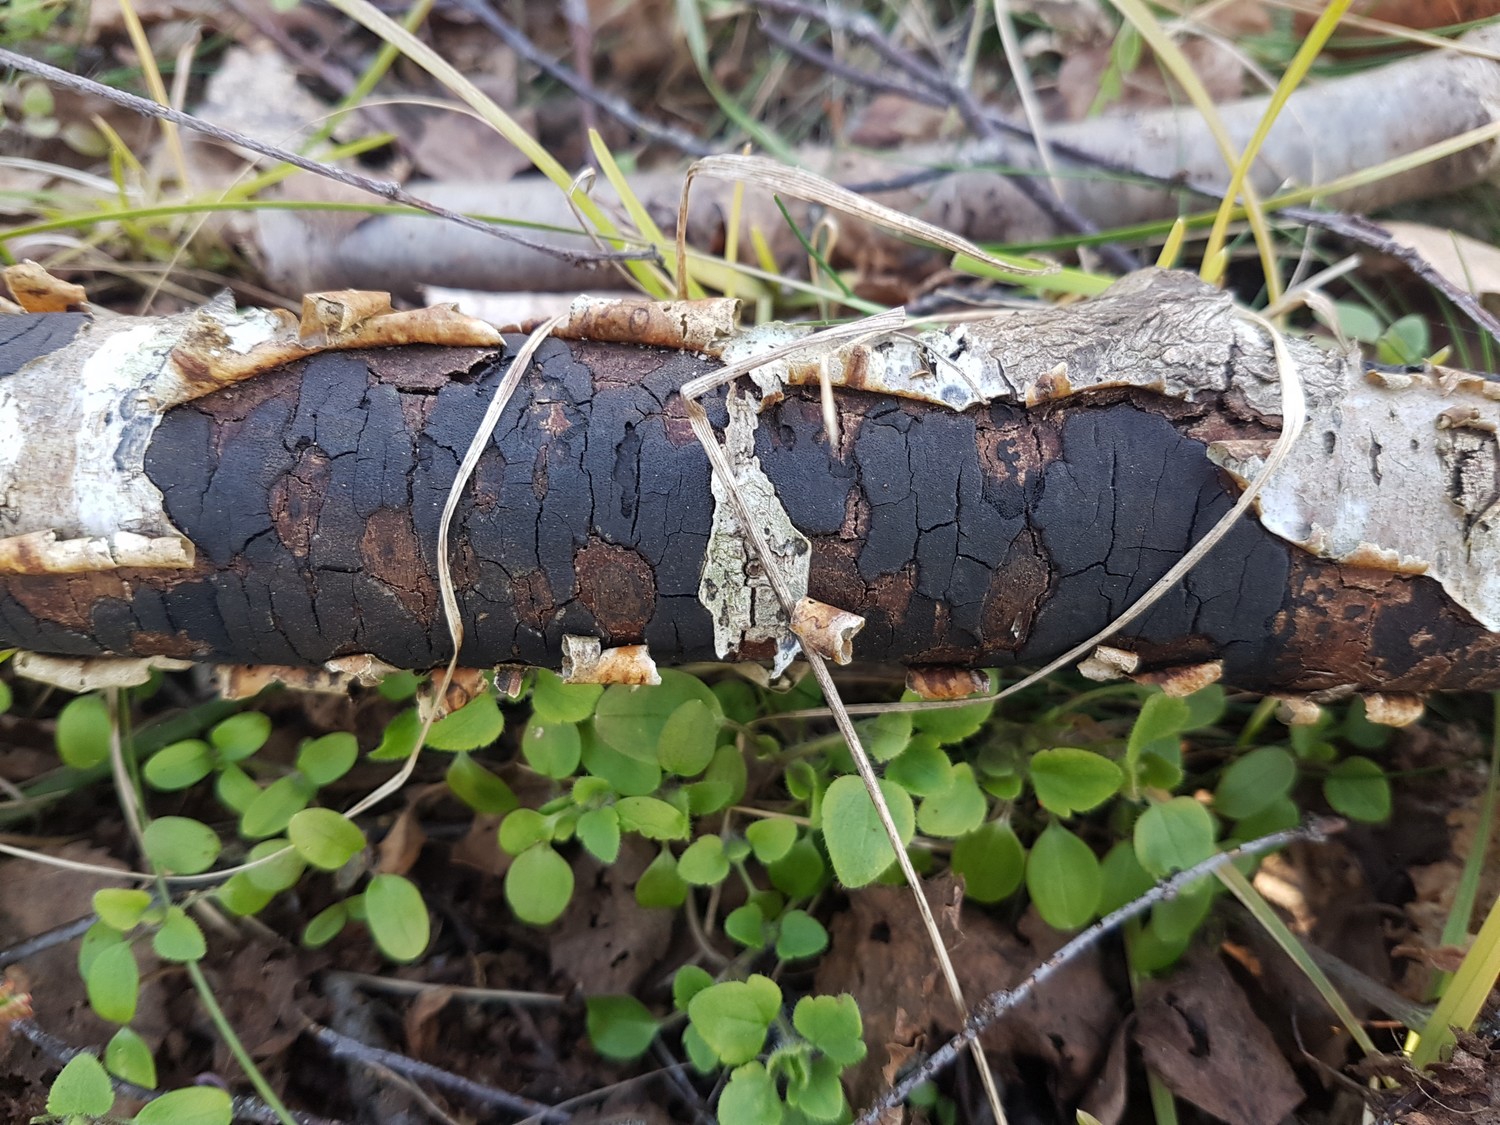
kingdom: Fungi
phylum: Ascomycota
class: Sordariomycetes
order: Xylariales
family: Diatrypaceae
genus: Diatrype
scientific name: Diatrype
